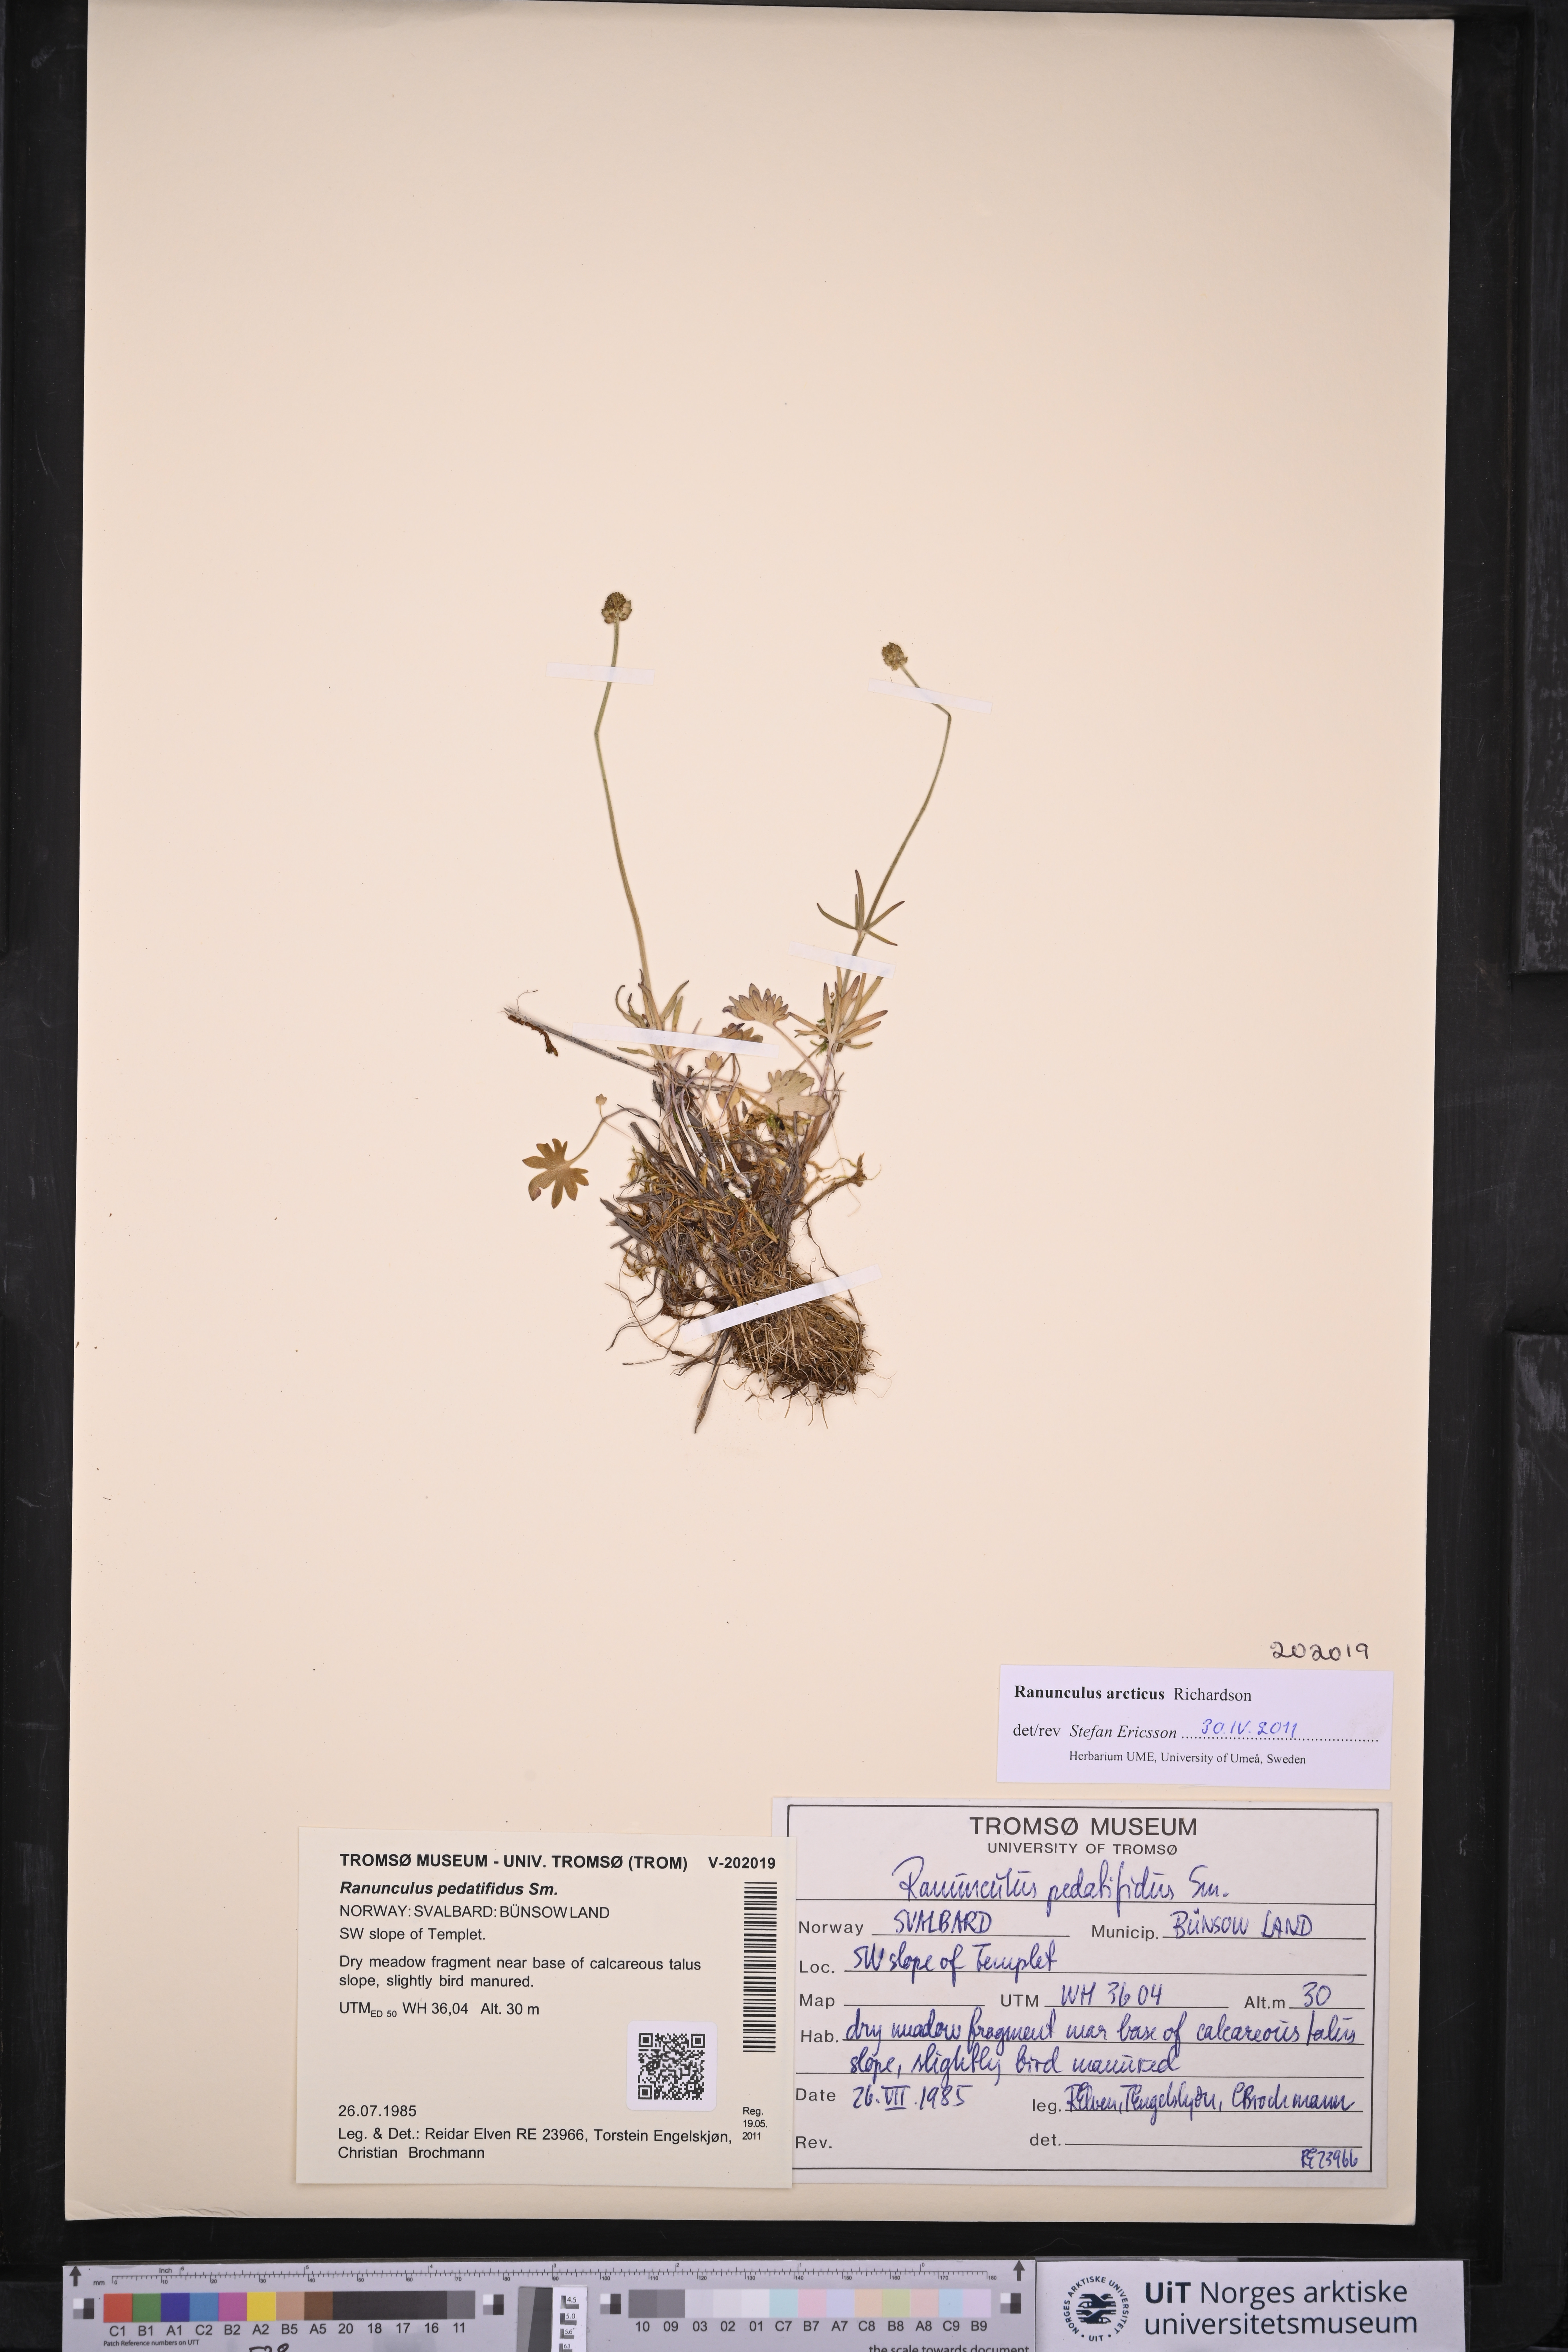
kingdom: Plantae
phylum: Tracheophyta
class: Magnoliopsida
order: Ranunculales
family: Ranunculaceae
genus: Ranunculus
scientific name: Ranunculus arcticus
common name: Bird's-foot buttercup
